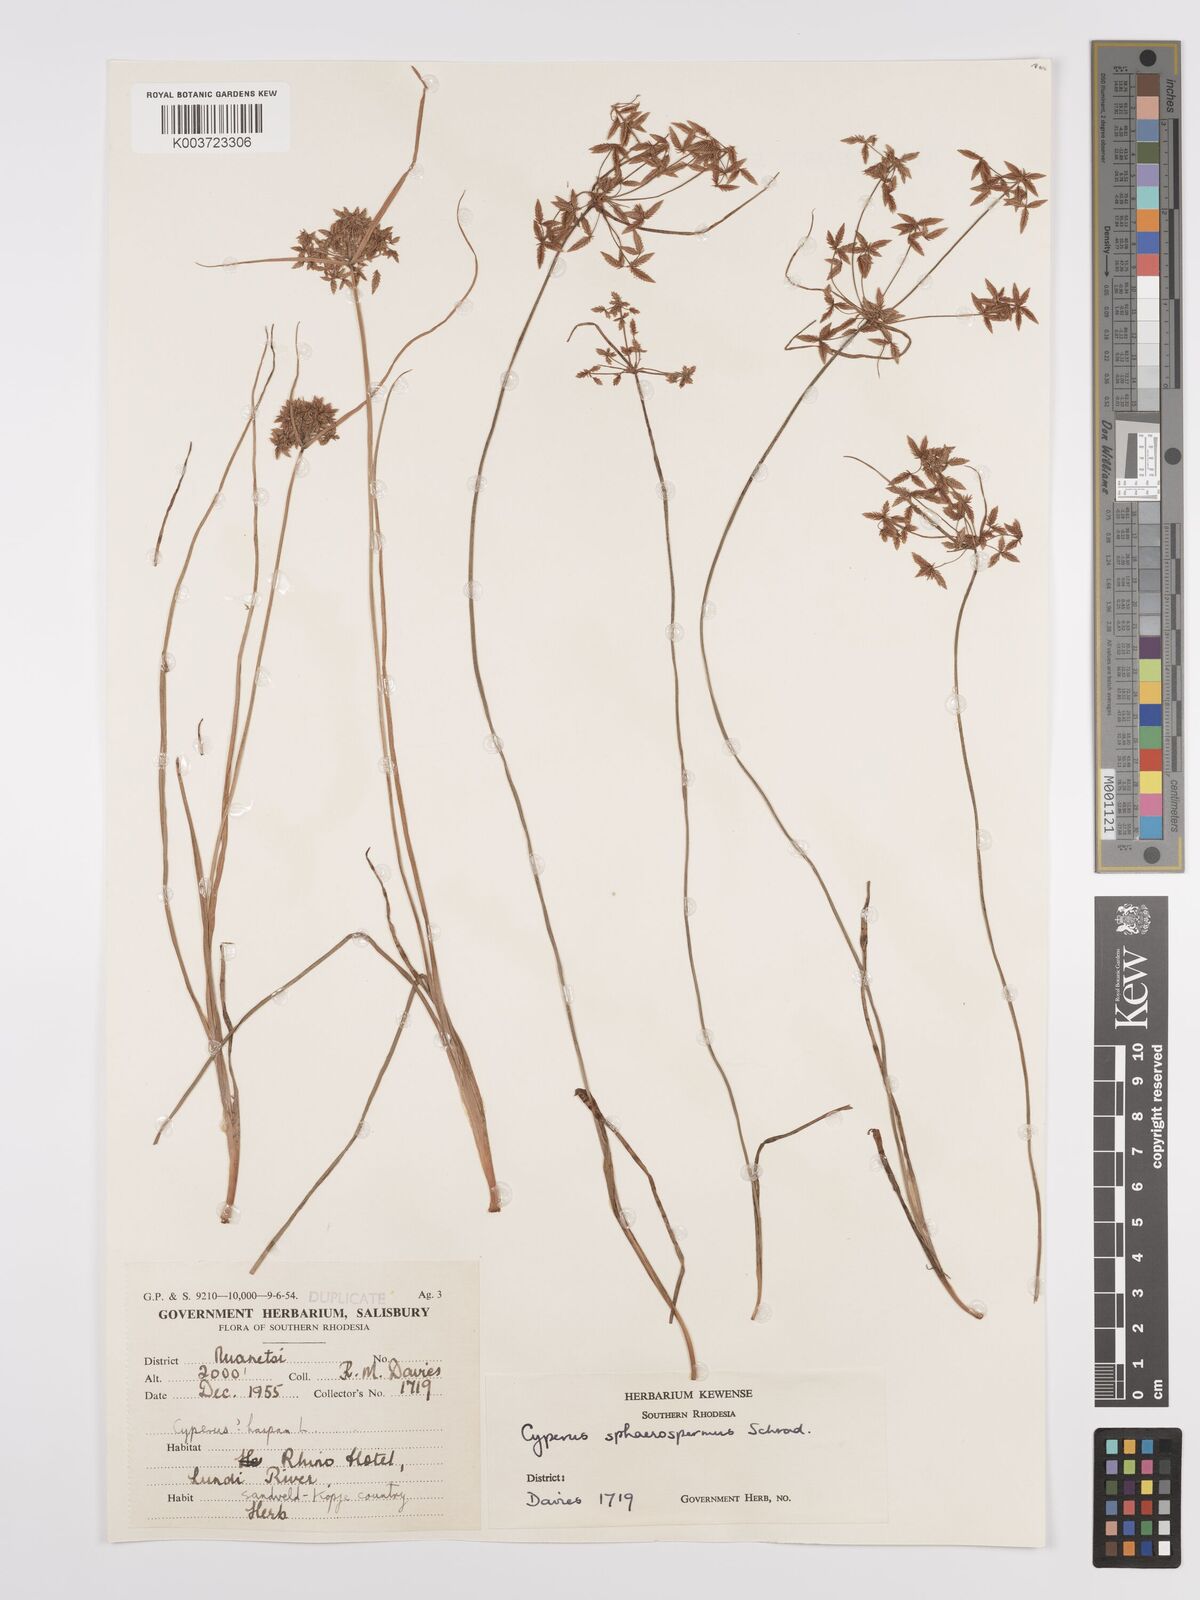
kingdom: Plantae
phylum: Tracheophyta
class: Liliopsida
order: Poales
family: Cyperaceae
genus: Cyperus
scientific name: Cyperus denudatus
